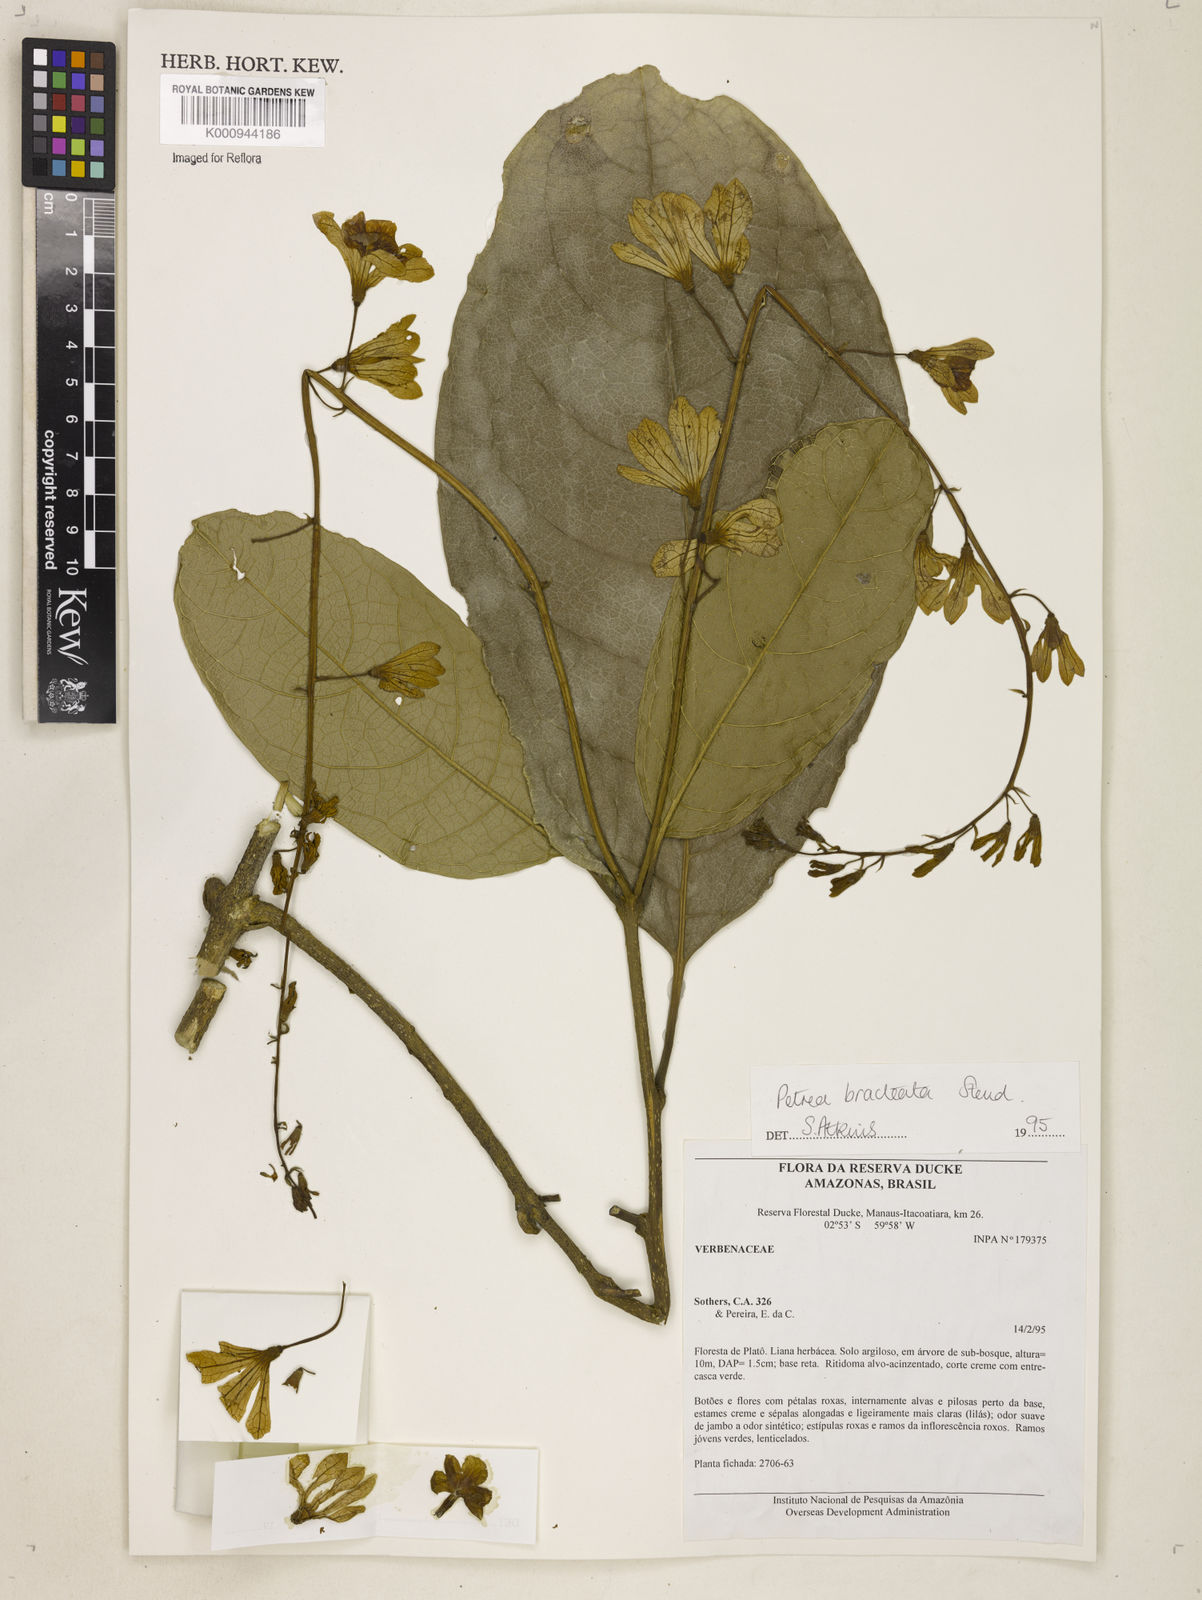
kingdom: Plantae
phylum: Tracheophyta
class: Magnoliopsida
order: Lamiales
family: Verbenaceae
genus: Petrea
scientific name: Petrea bracteata
